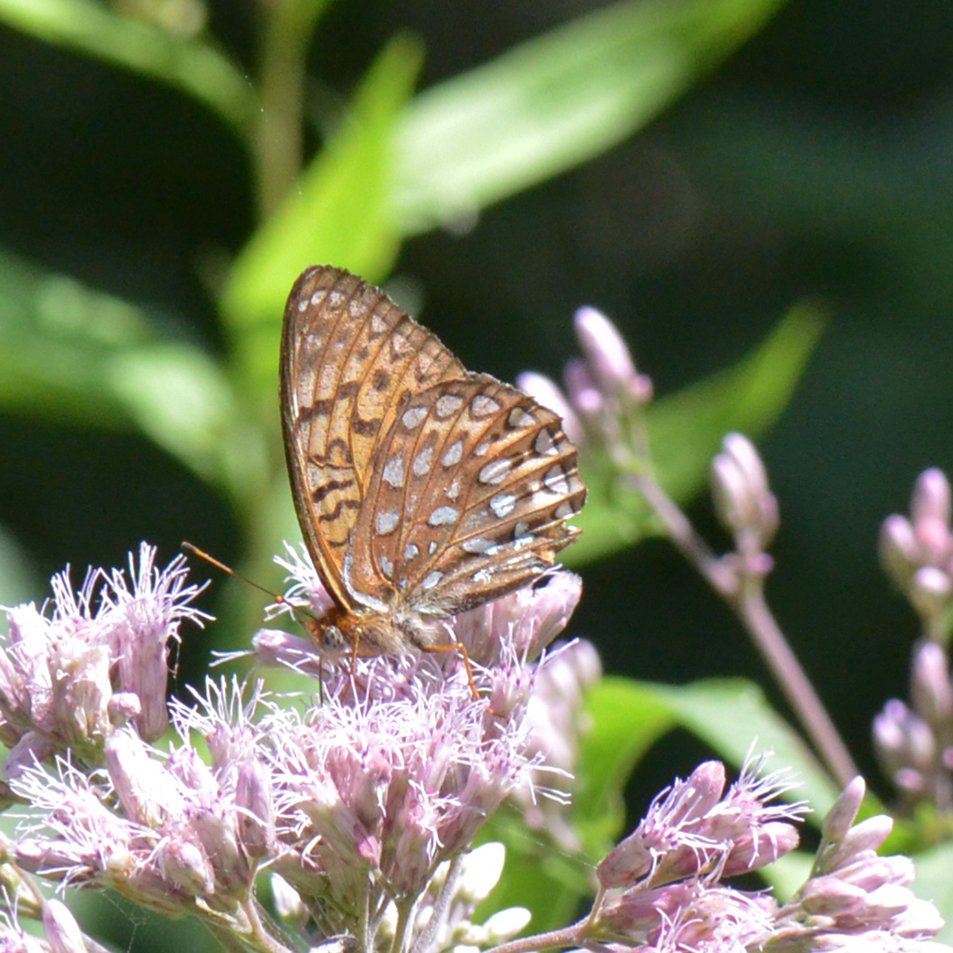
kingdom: Animalia
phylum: Arthropoda
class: Insecta
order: Lepidoptera
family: Nymphalidae
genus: Speyeria
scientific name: Speyeria atlantis
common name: Atlantis Fritillary
